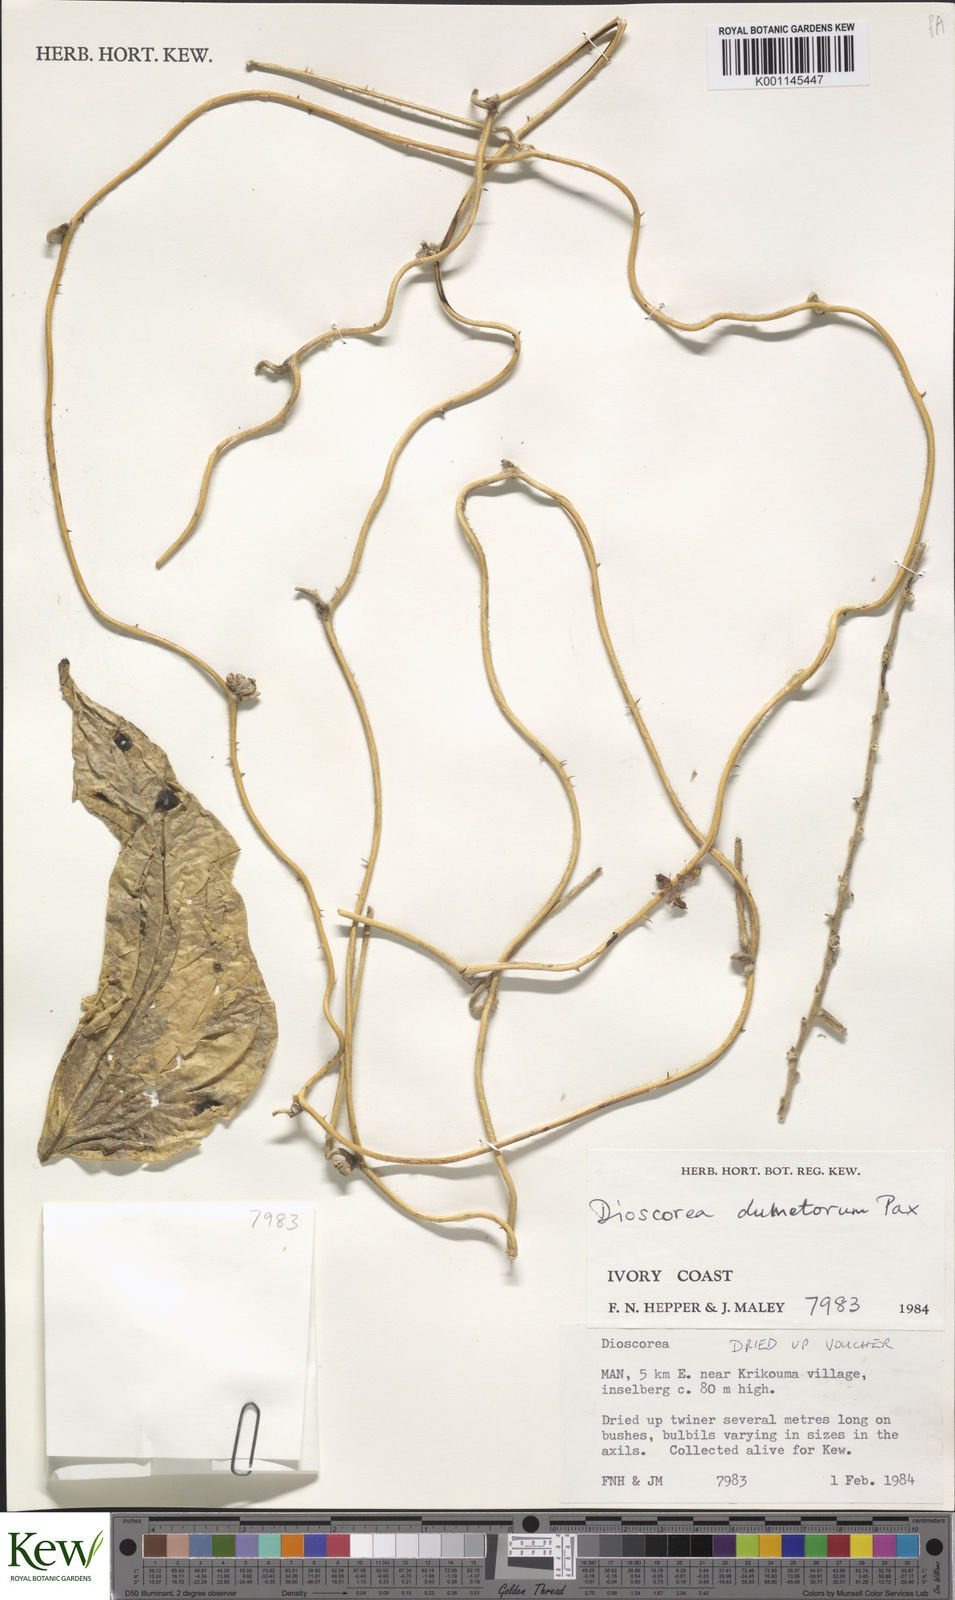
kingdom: Plantae
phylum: Tracheophyta
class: Liliopsida
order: Dioscoreales
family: Dioscoreaceae
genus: Dioscorea
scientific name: Dioscorea dumetorum
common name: African bitter yam
